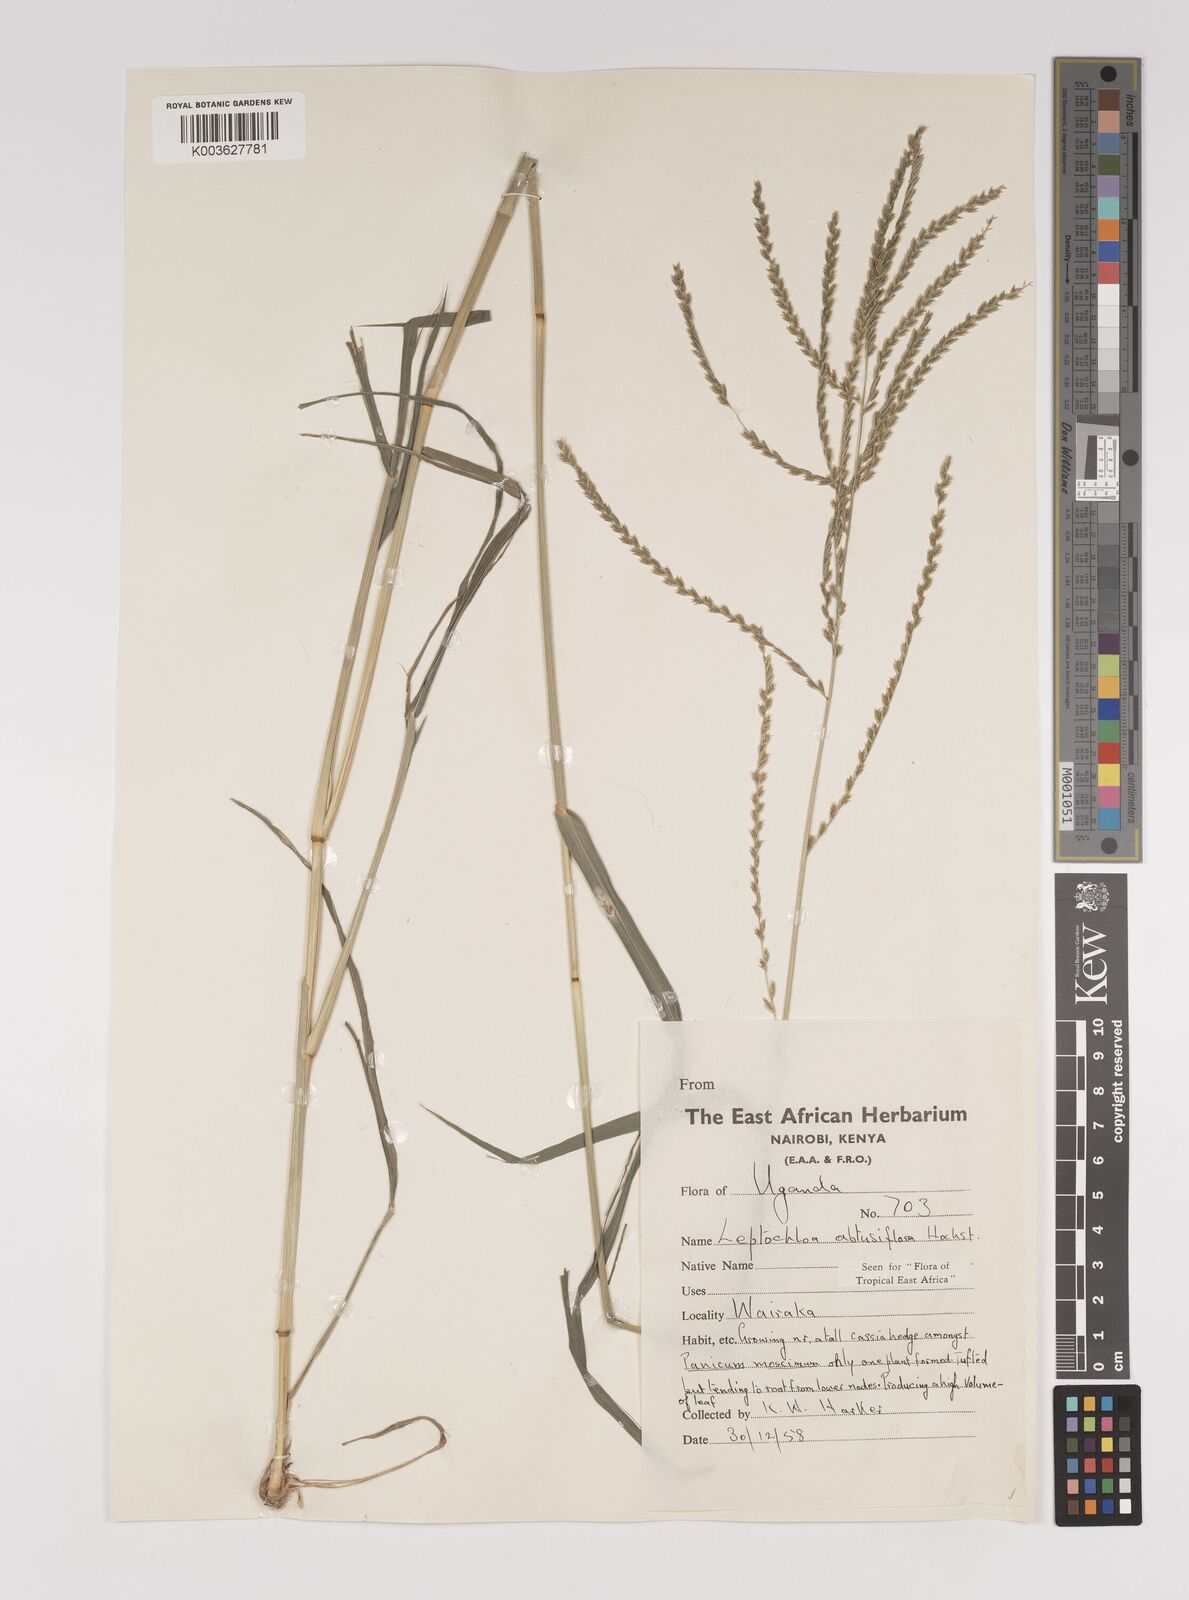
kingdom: Plantae
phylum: Tracheophyta
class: Liliopsida
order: Poales
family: Poaceae
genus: Disakisperma
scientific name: Disakisperma obtusiflorum
